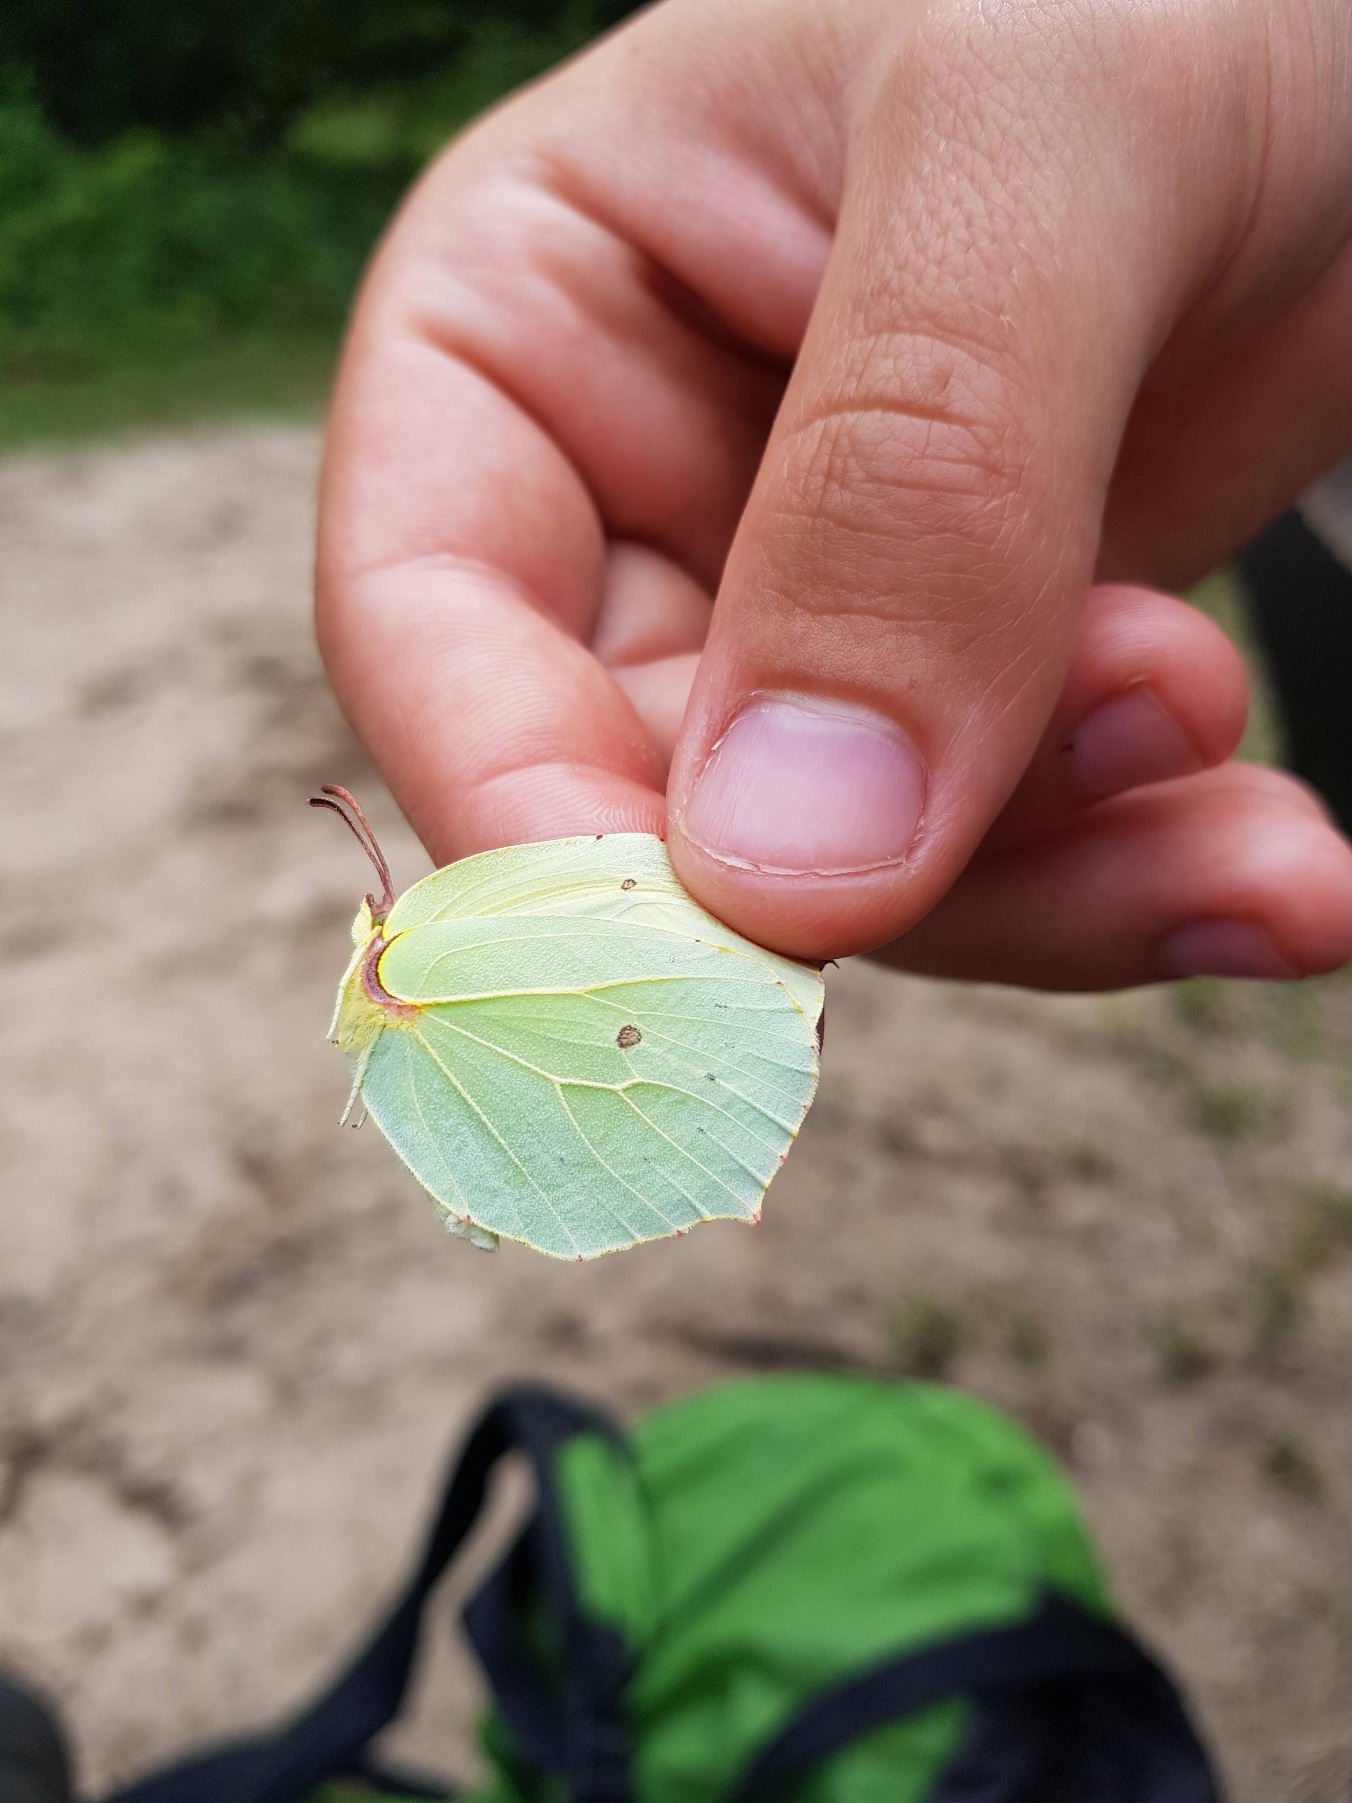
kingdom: Animalia
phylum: Arthropoda
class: Insecta
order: Lepidoptera
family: Pieridae
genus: Gonepteryx
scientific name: Gonepteryx rhamni
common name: Citronsommerfugl
